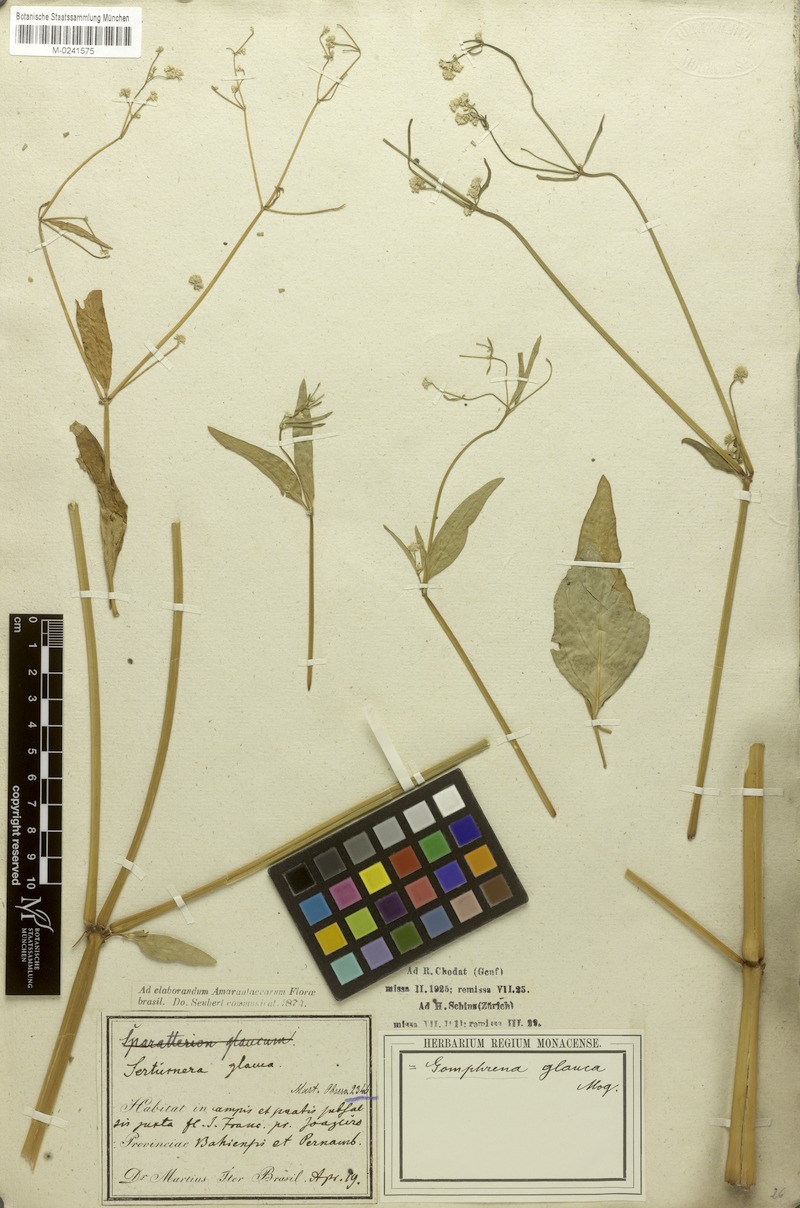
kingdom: Plantae
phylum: Tracheophyta
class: Magnoliopsida
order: Caryophyllales
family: Amaranthaceae
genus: Pfaffia
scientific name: Pfaffia glomerata
